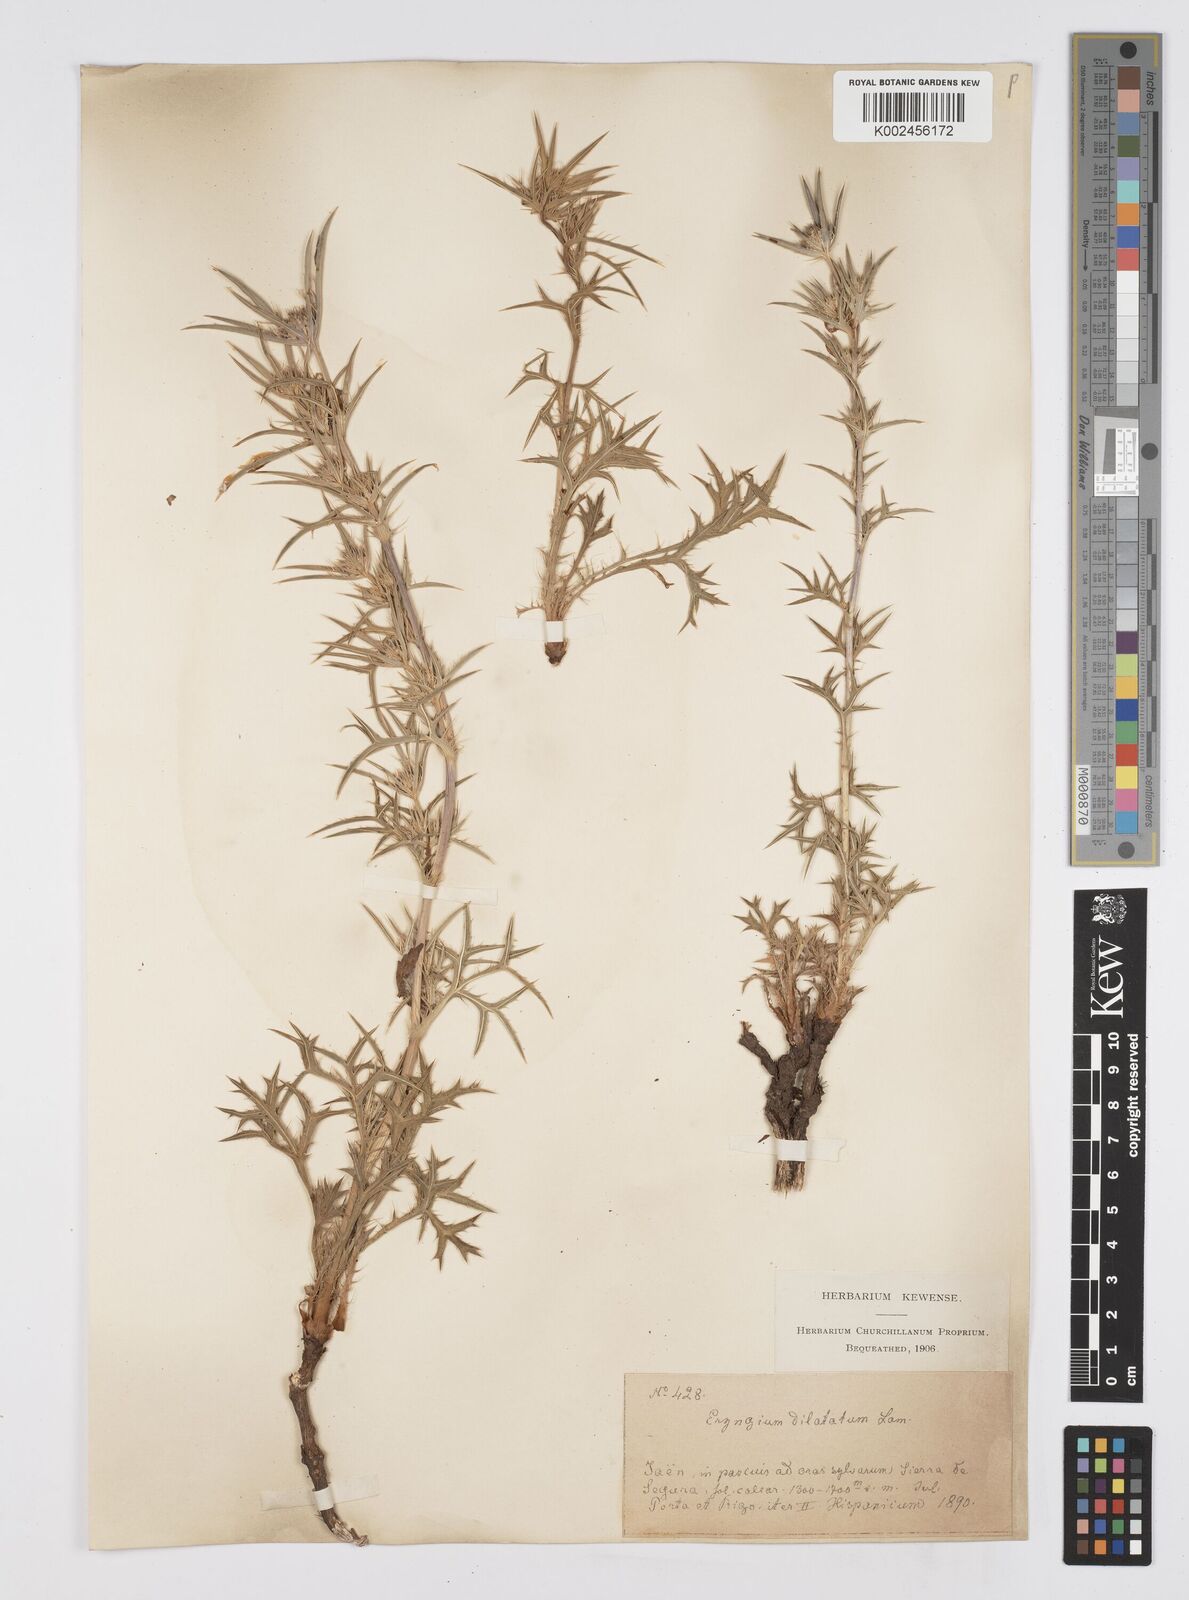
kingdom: Plantae
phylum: Tracheophyta
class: Magnoliopsida
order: Apiales
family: Apiaceae
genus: Eryngium
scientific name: Eryngium dilatatum
